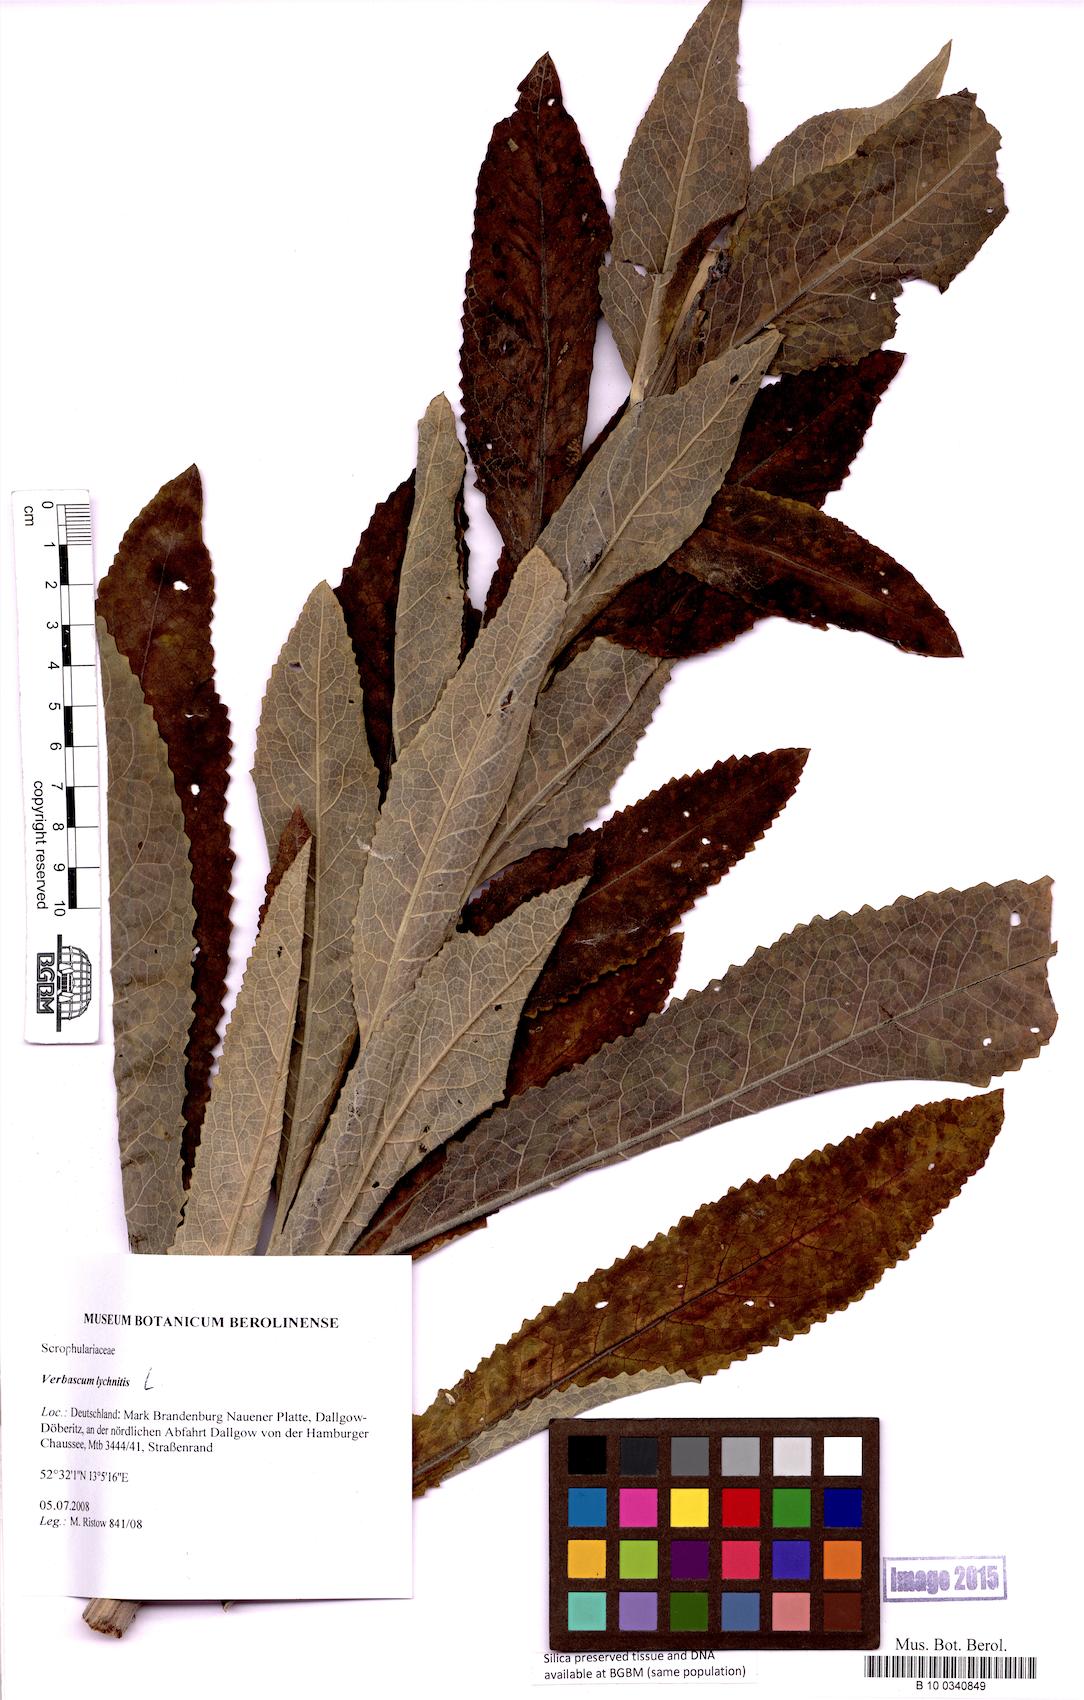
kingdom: Plantae
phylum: Tracheophyta
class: Magnoliopsida
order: Lamiales
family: Scrophulariaceae
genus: Verbascum
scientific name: Verbascum lychnitis
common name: White mullein
